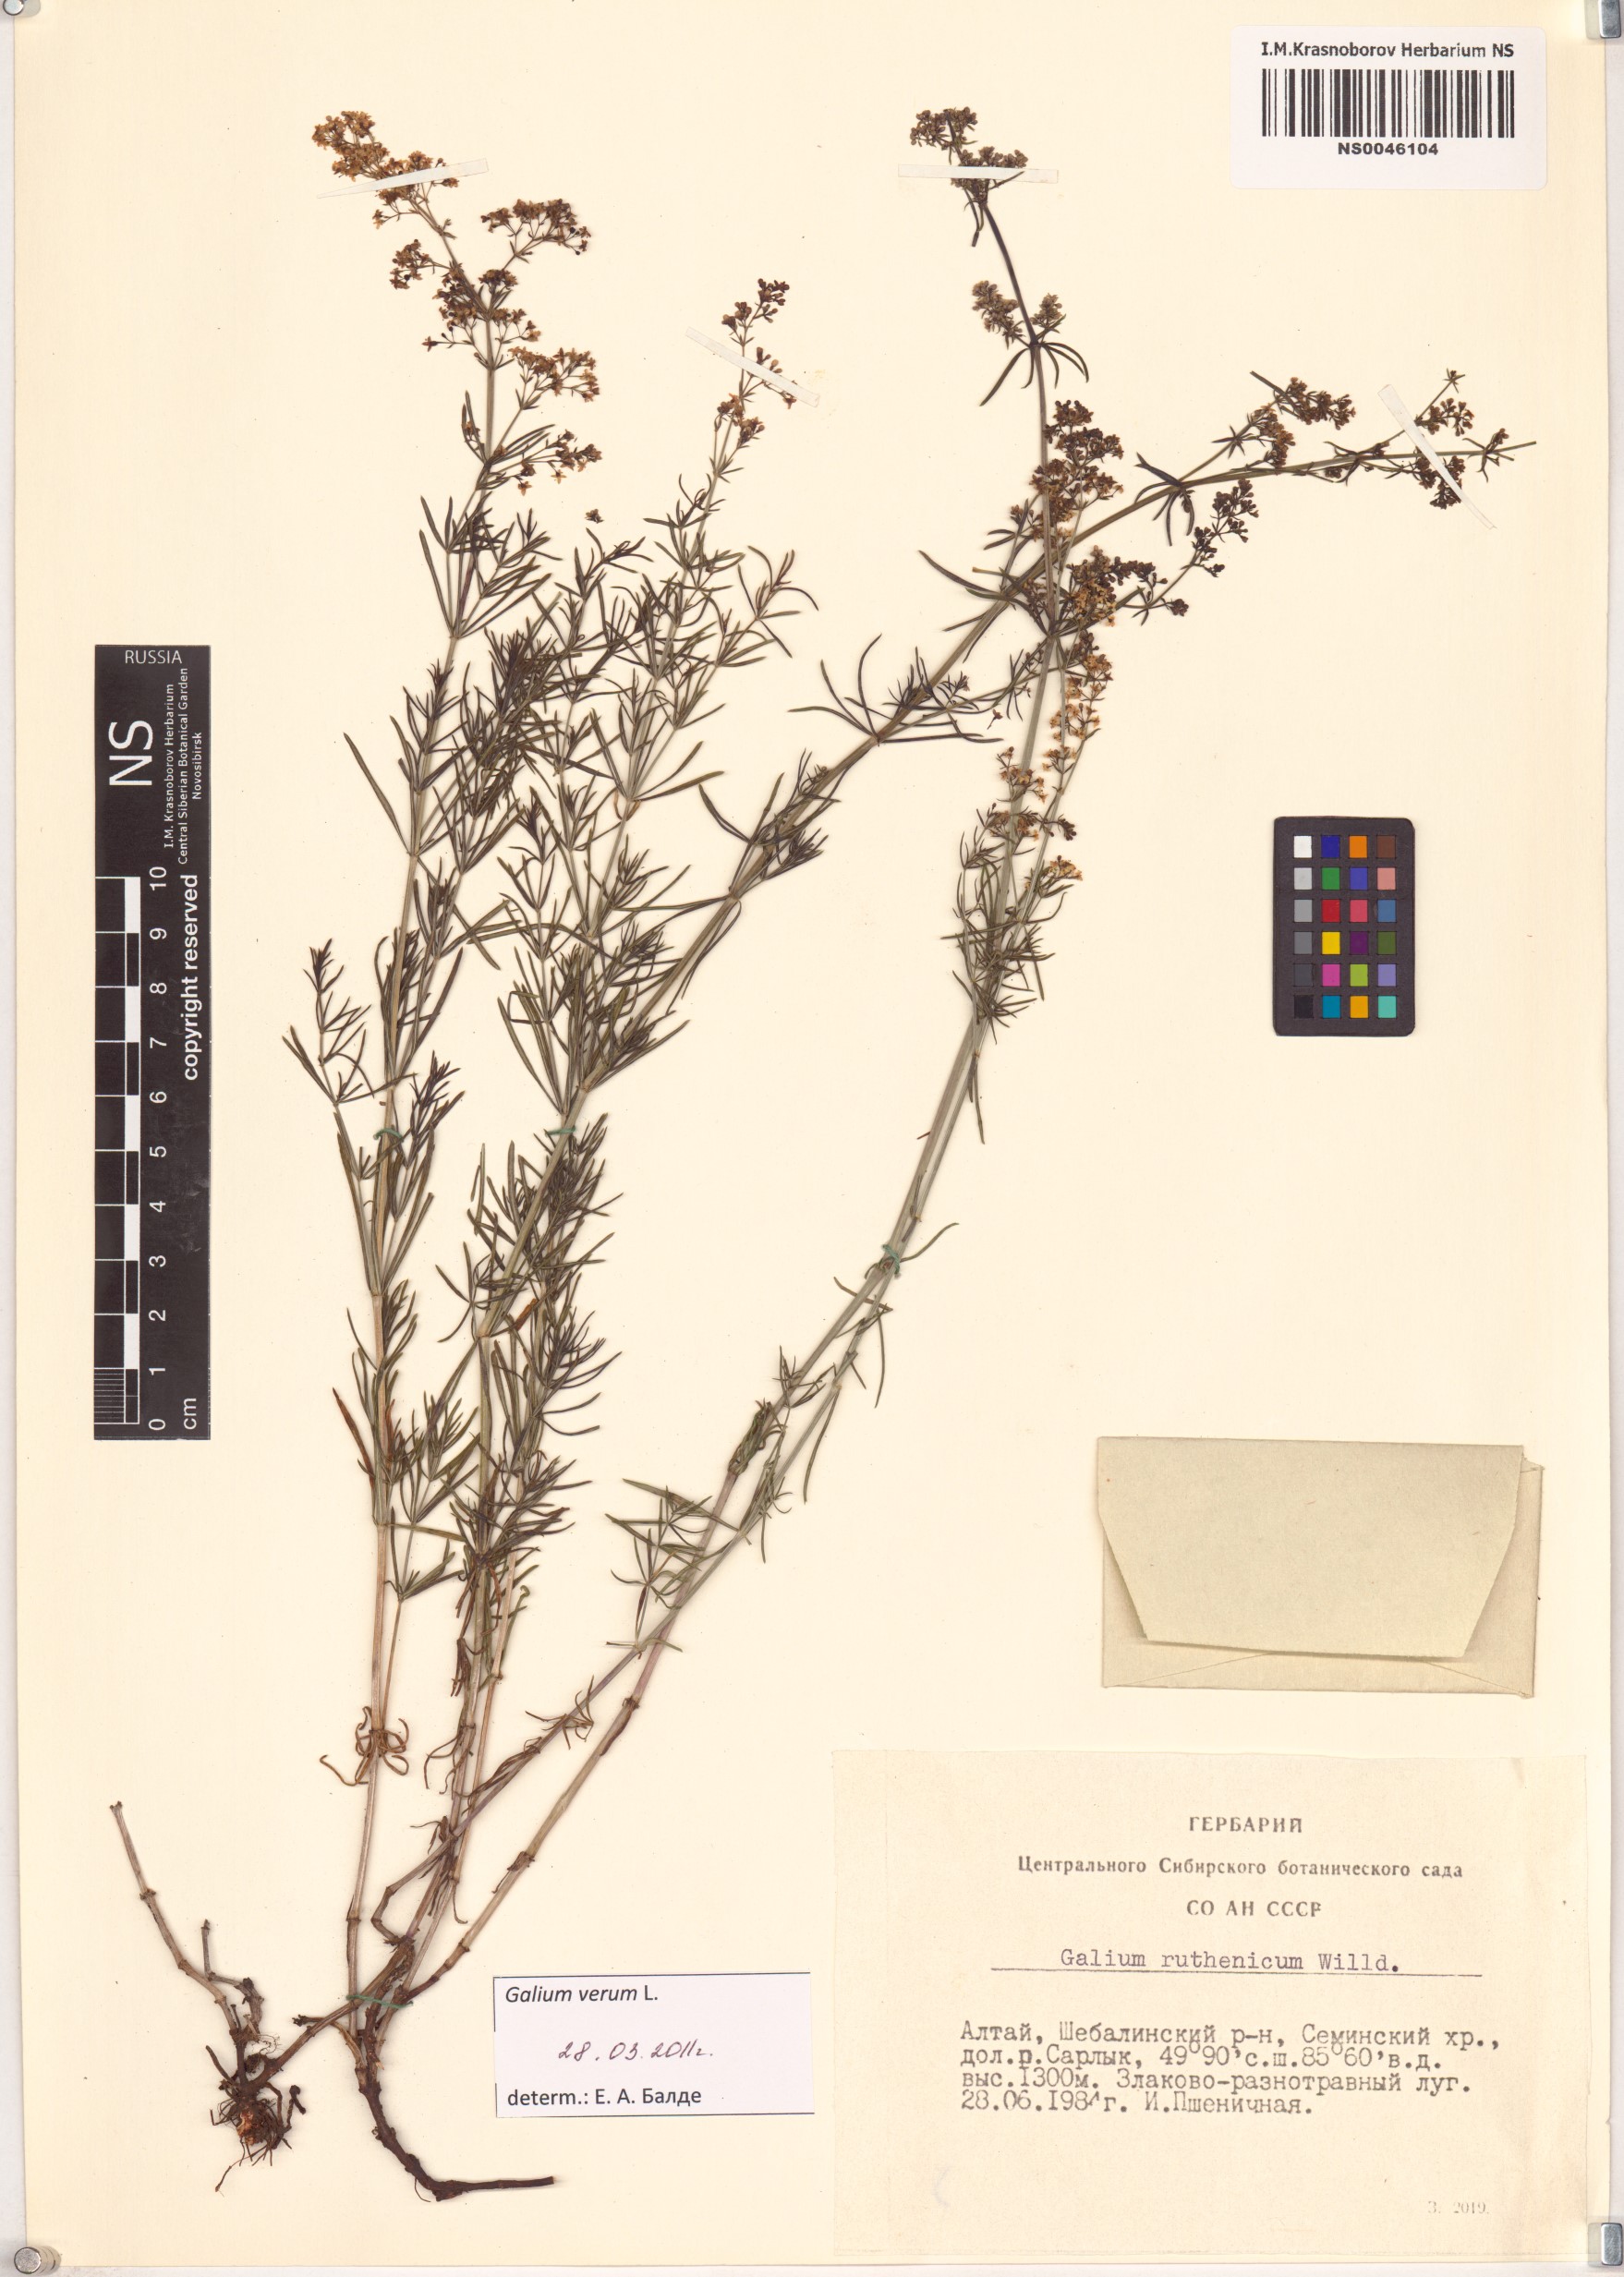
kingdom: Plantae
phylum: Tracheophyta
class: Magnoliopsida
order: Gentianales
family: Rubiaceae
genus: Galium
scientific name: Galium verum
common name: Lady's bedstraw
